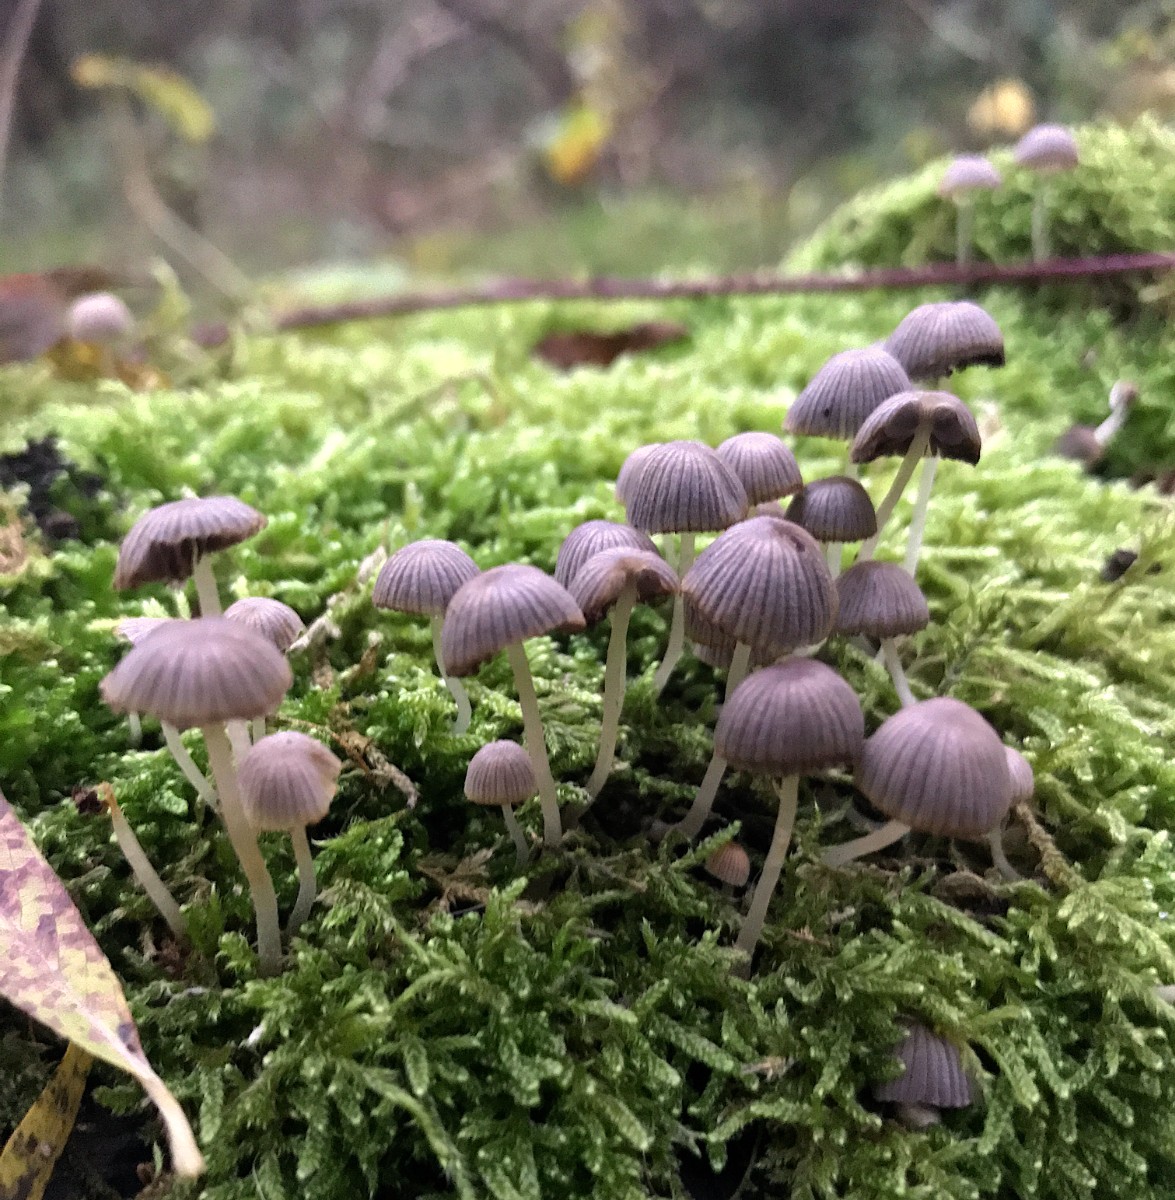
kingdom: Fungi
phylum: Basidiomycota
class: Agaricomycetes
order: Agaricales
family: Psathyrellaceae
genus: Coprinellus
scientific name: Coprinellus disseminatus
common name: bredsået blækhat
